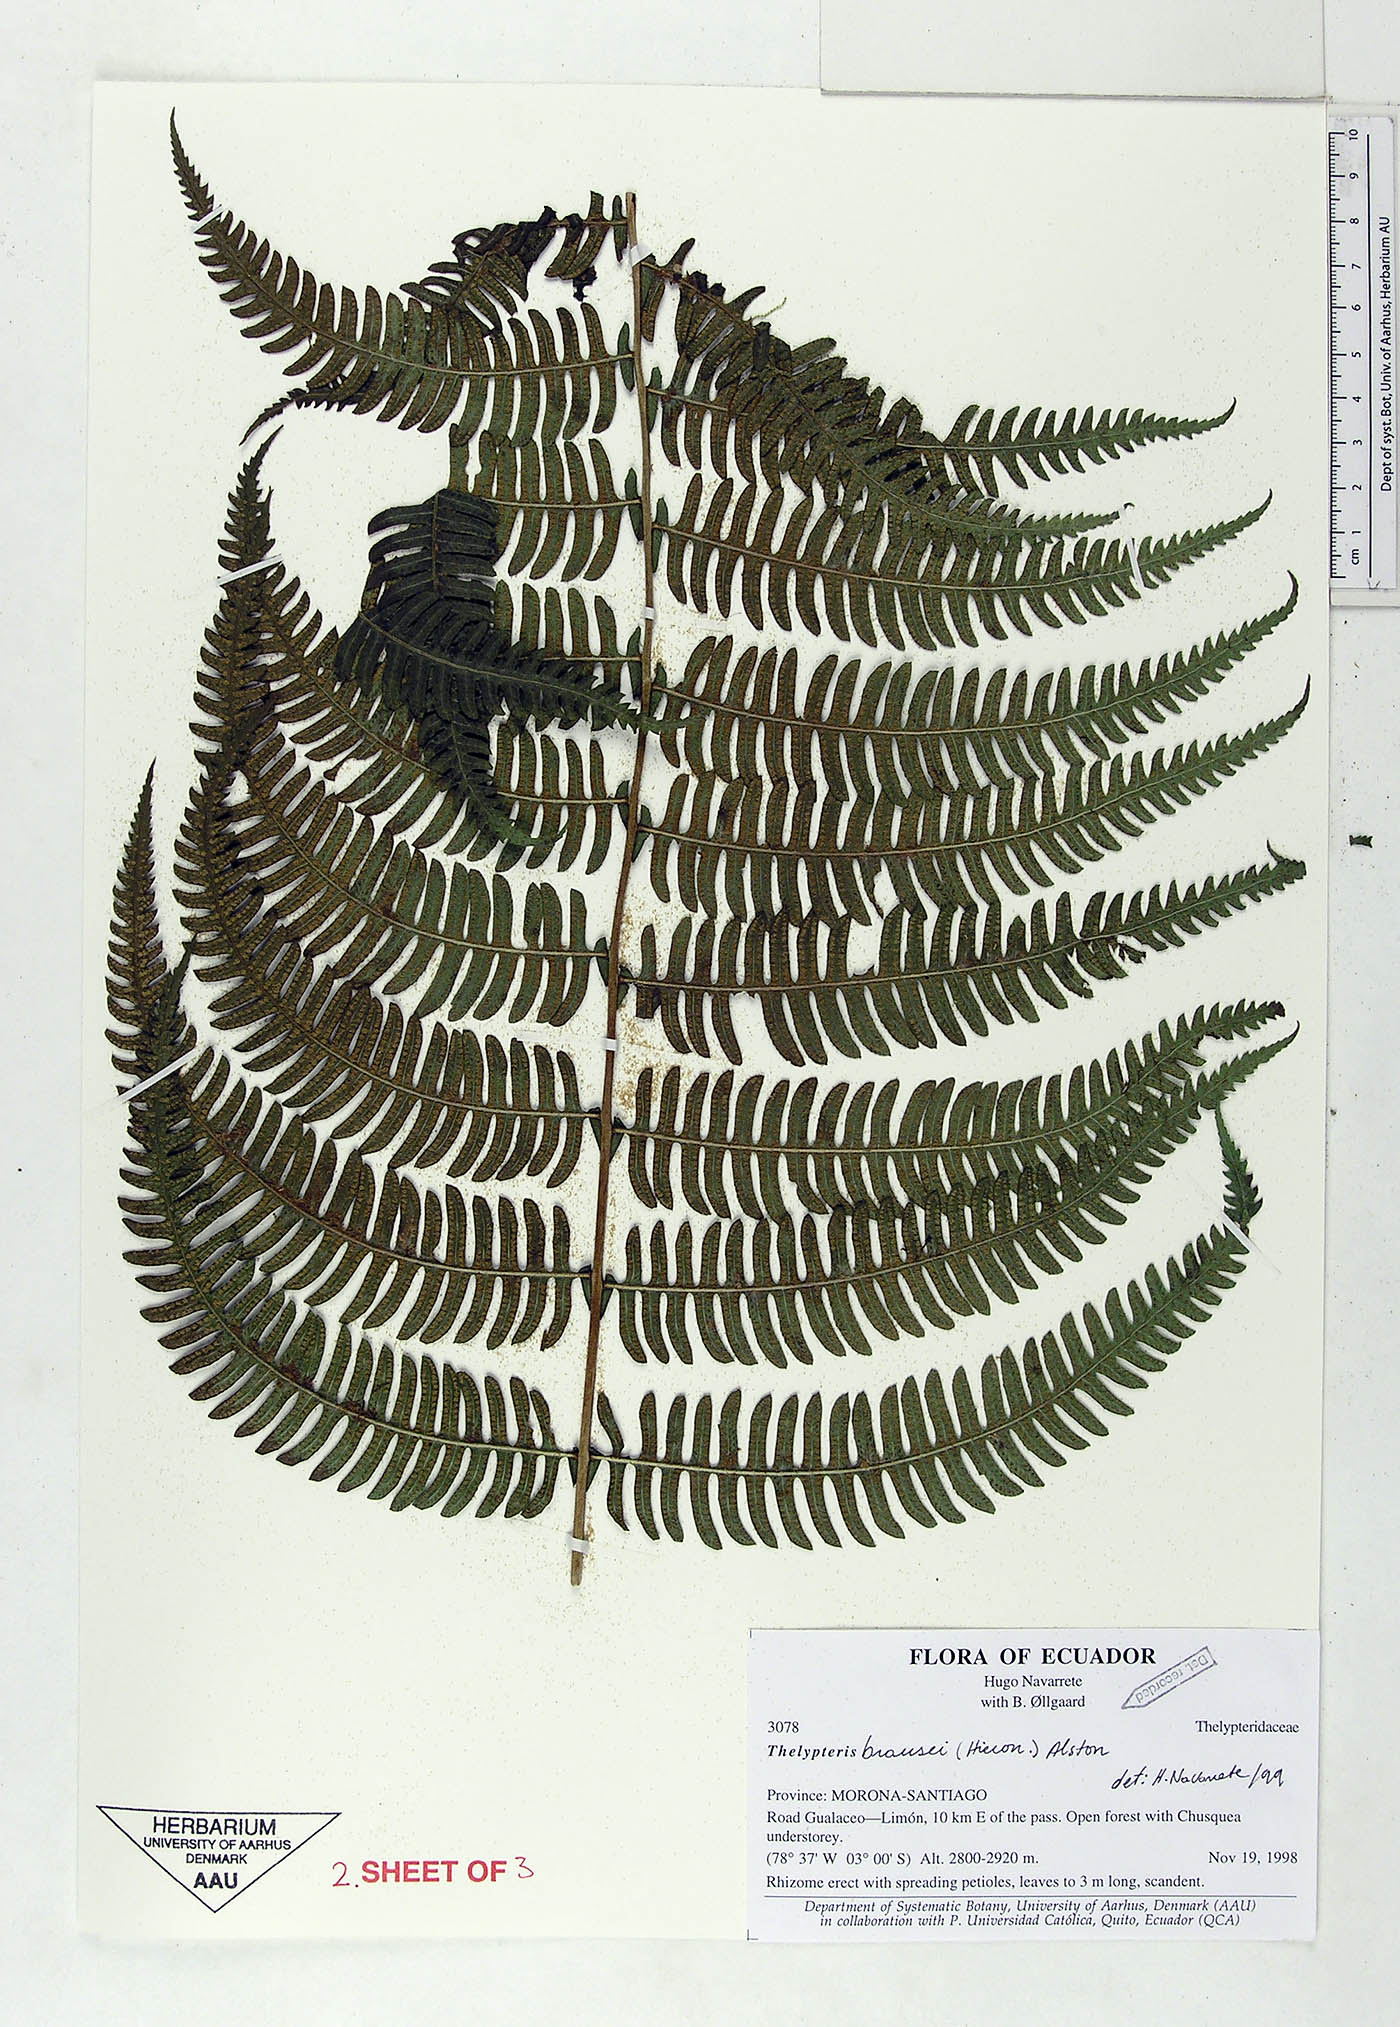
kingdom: Plantae
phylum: Tracheophyta
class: Polypodiopsida
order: Polypodiales
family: Thelypteridaceae
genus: Amauropelta
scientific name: Amauropelta brausei
